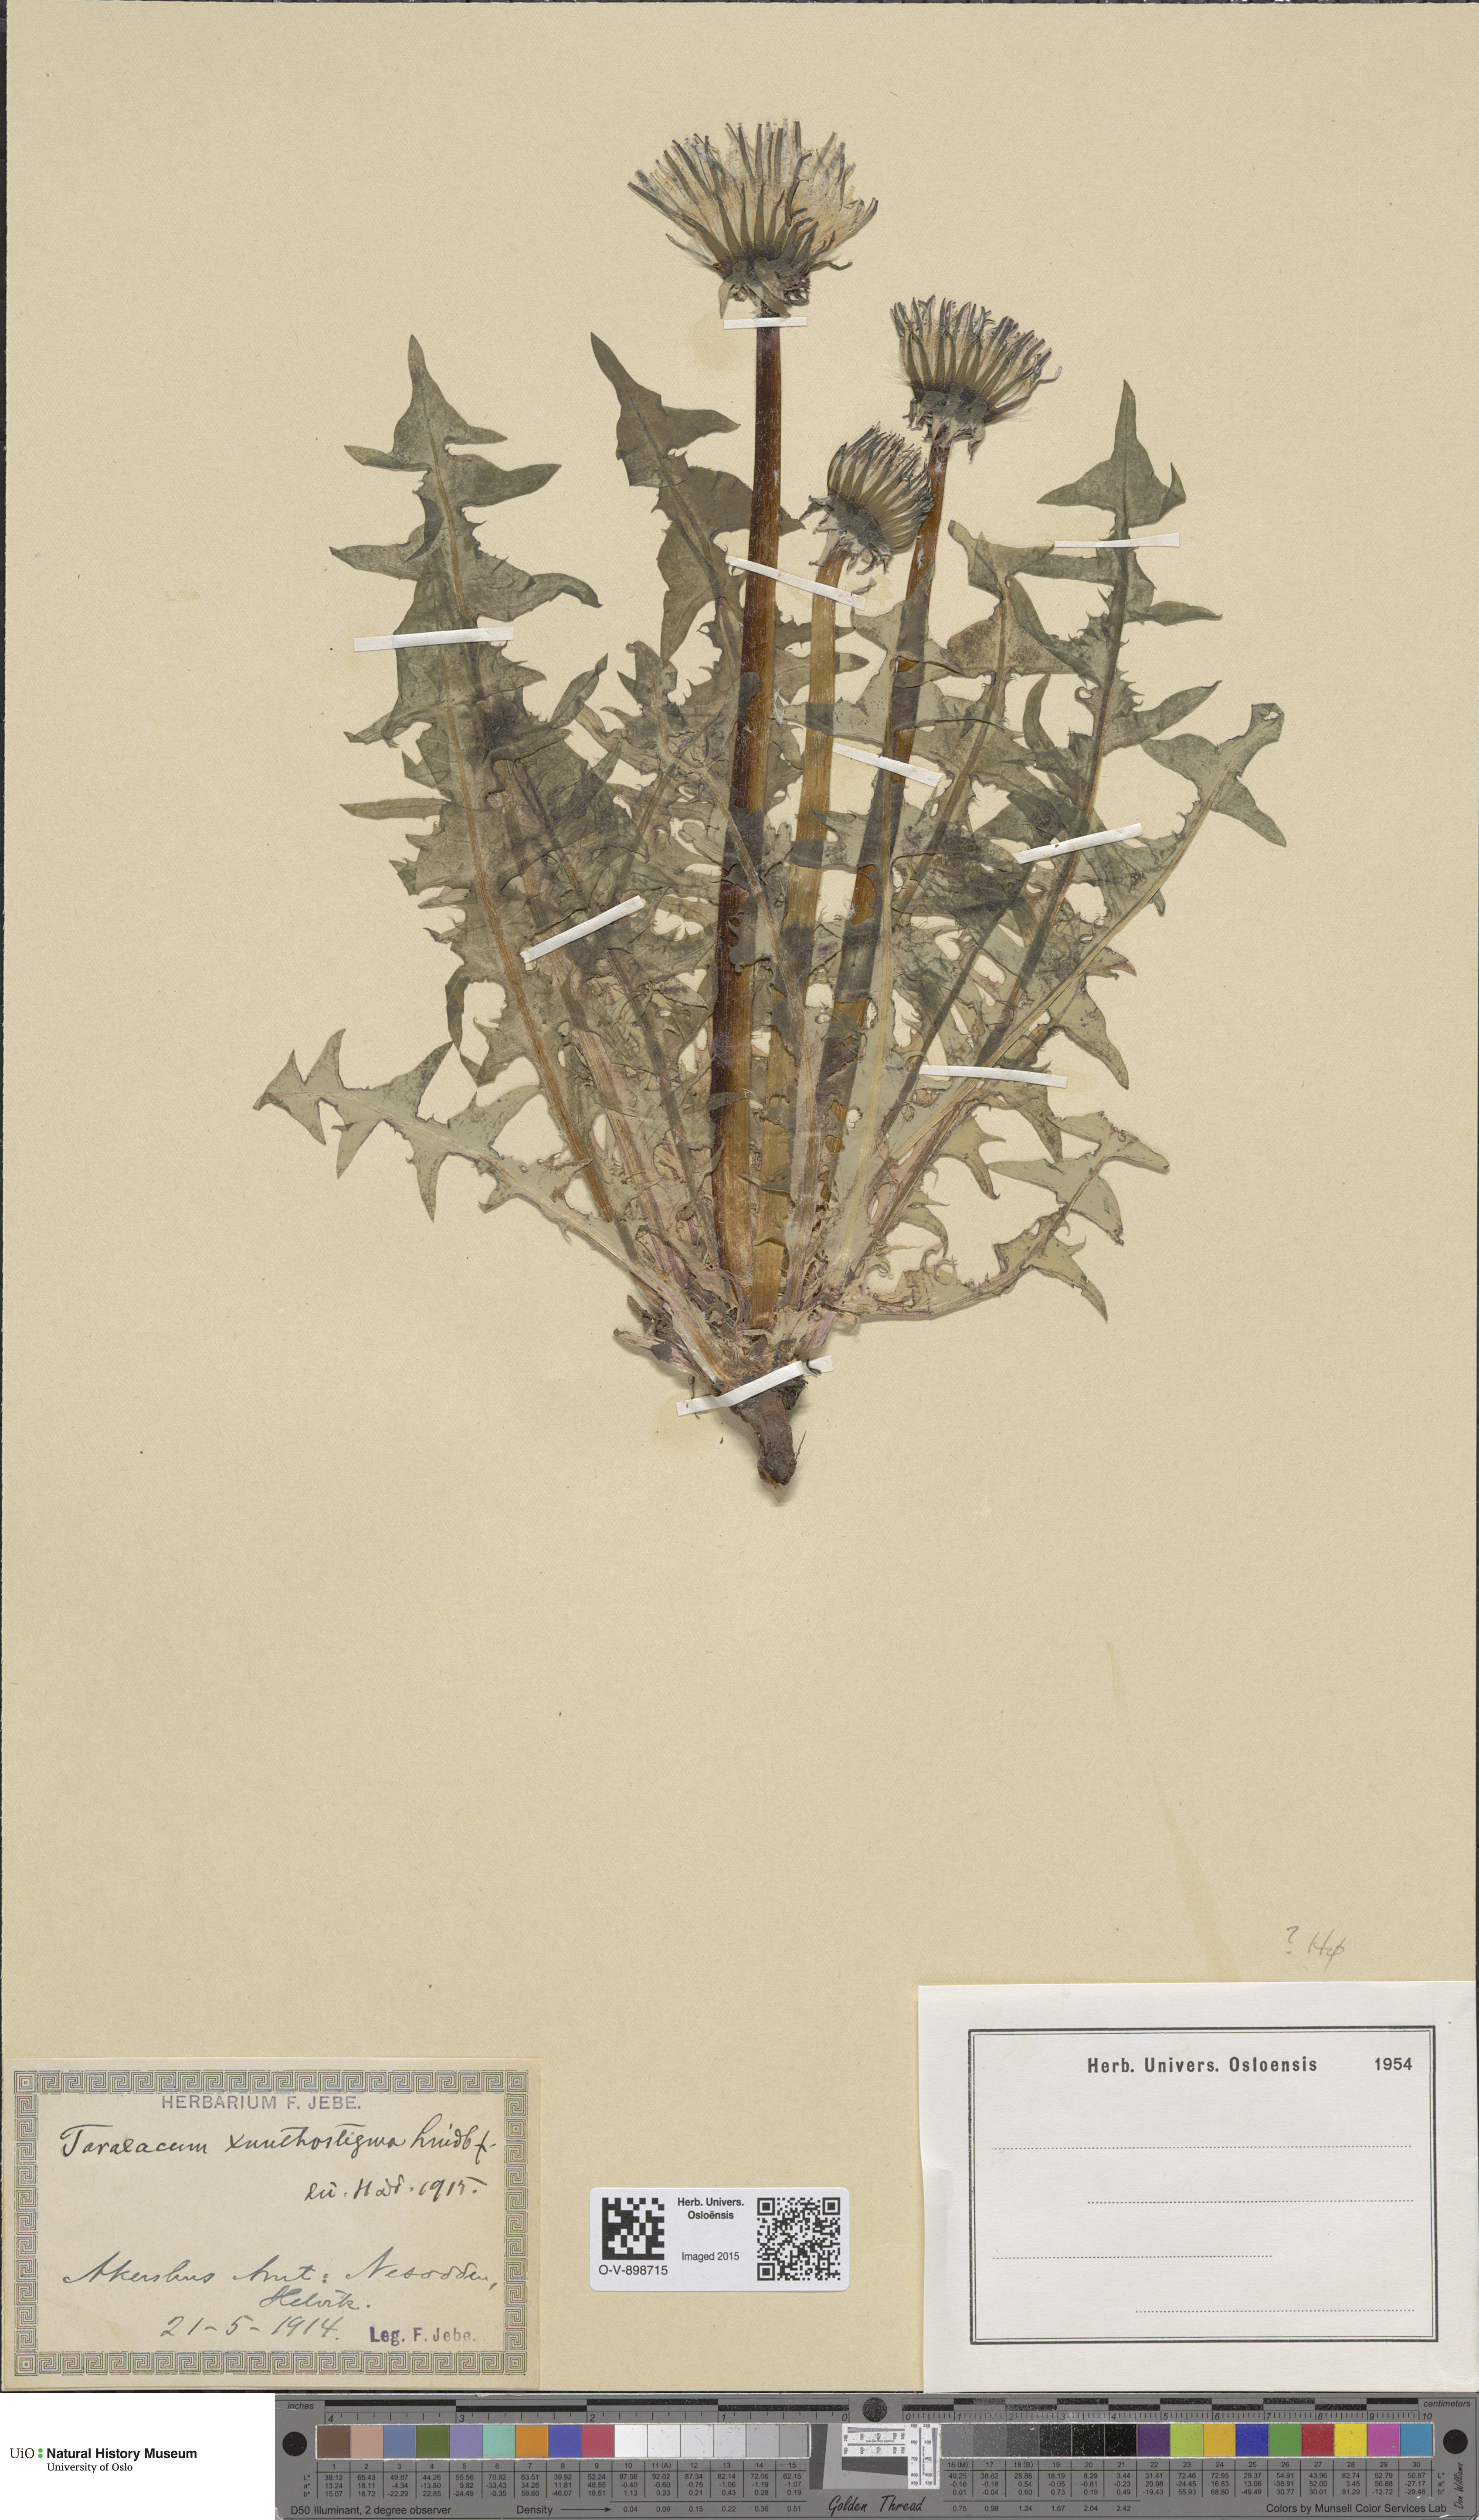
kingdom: Plantae
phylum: Tracheophyta
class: Magnoliopsida
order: Asterales
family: Asteraceae
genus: Taraxacum
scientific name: Taraxacum xanthostigma
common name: Ochre-styled dandelion
